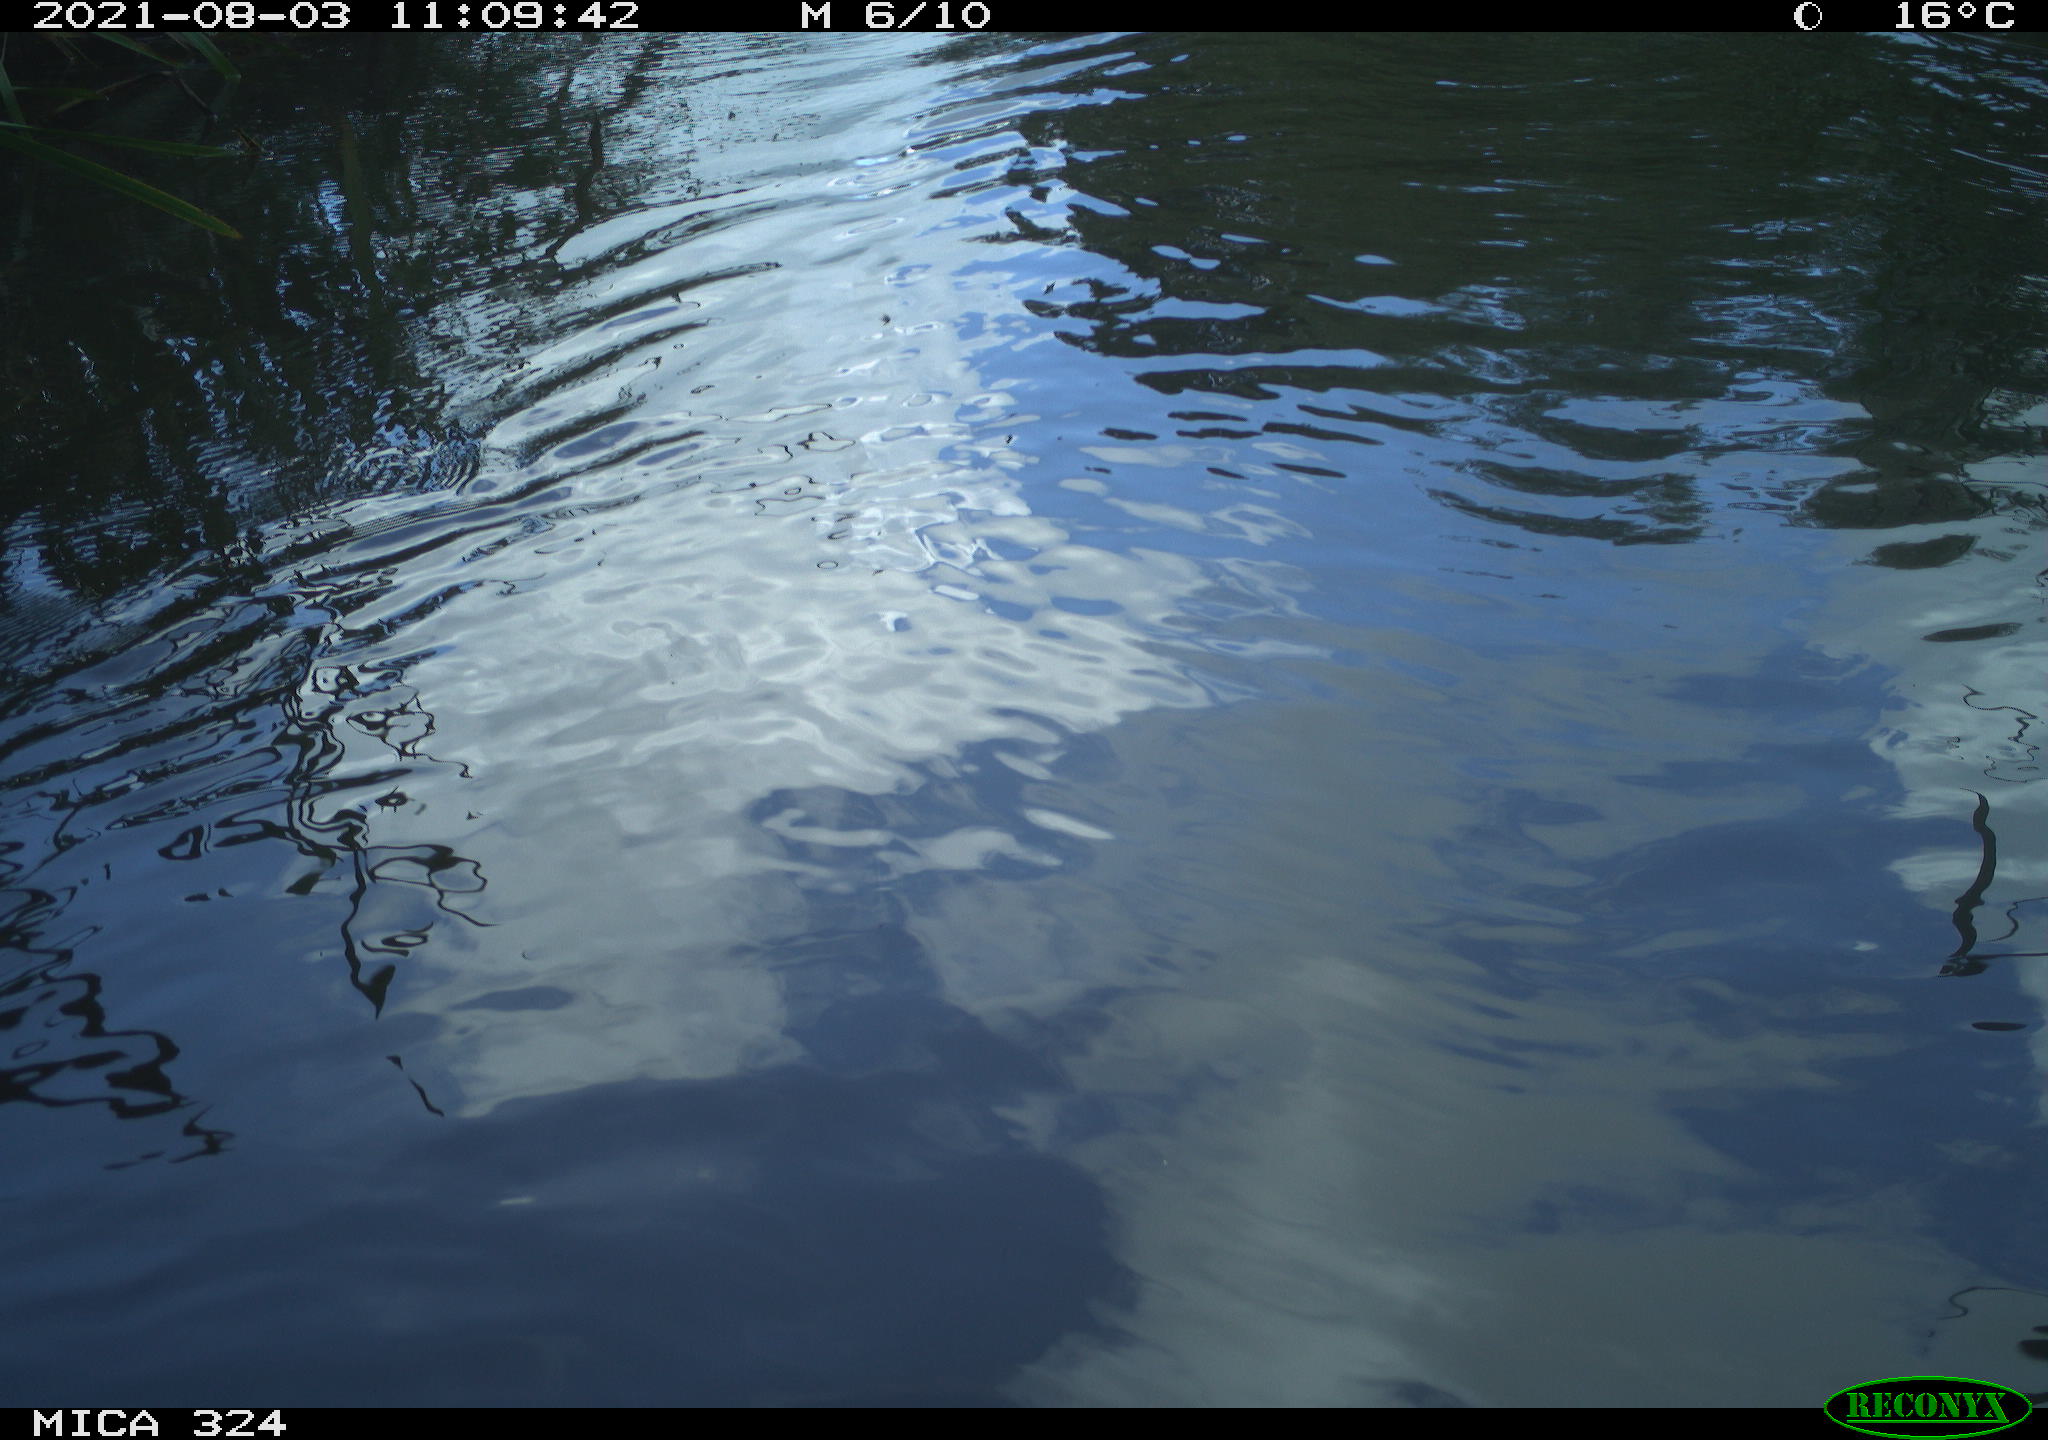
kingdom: Animalia
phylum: Chordata
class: Mammalia
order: Rodentia
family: Cricetidae
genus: Ondatra
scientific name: Ondatra zibethicus
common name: Muskrat
